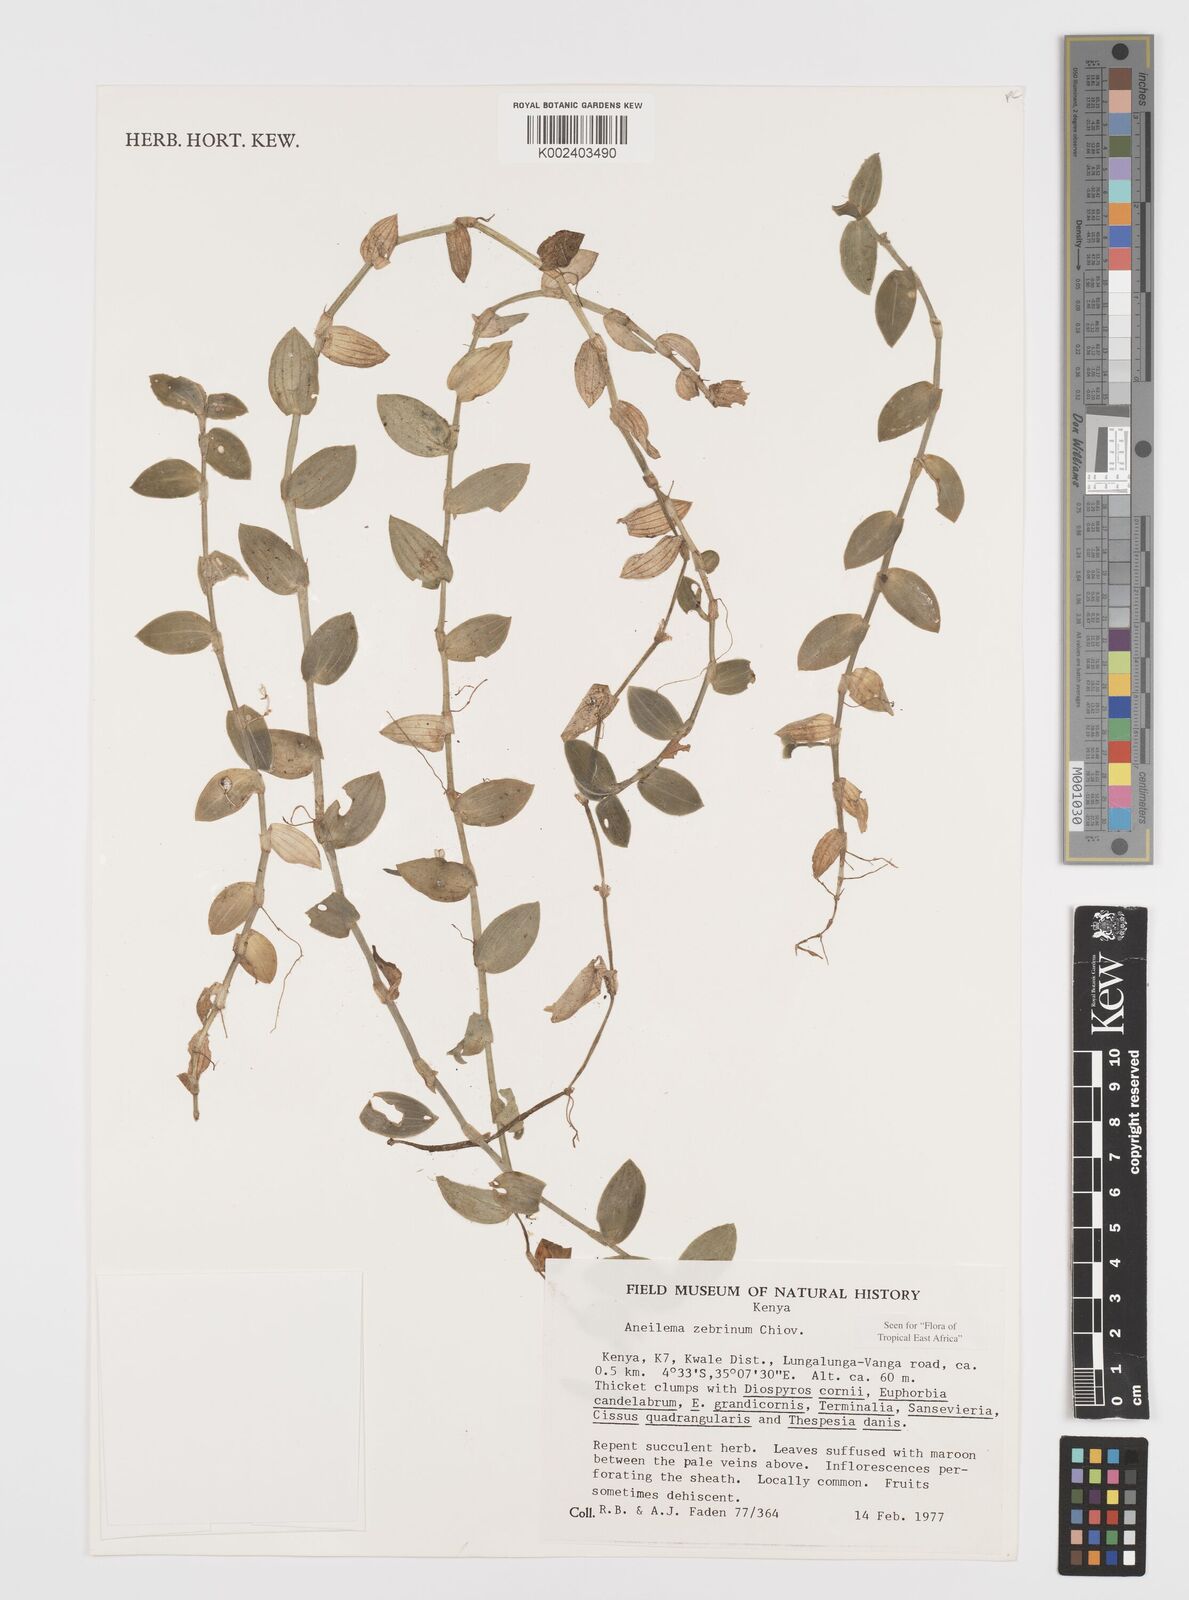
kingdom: Plantae
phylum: Tracheophyta
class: Liliopsida
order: Commelinales
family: Commelinaceae
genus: Aneilema
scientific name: Aneilema zebrinum
